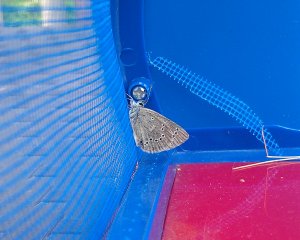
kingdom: Animalia
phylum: Arthropoda
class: Insecta
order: Lepidoptera
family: Lycaenidae
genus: Glaucopsyche
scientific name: Glaucopsyche lygdamus
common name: Silvery Blue
